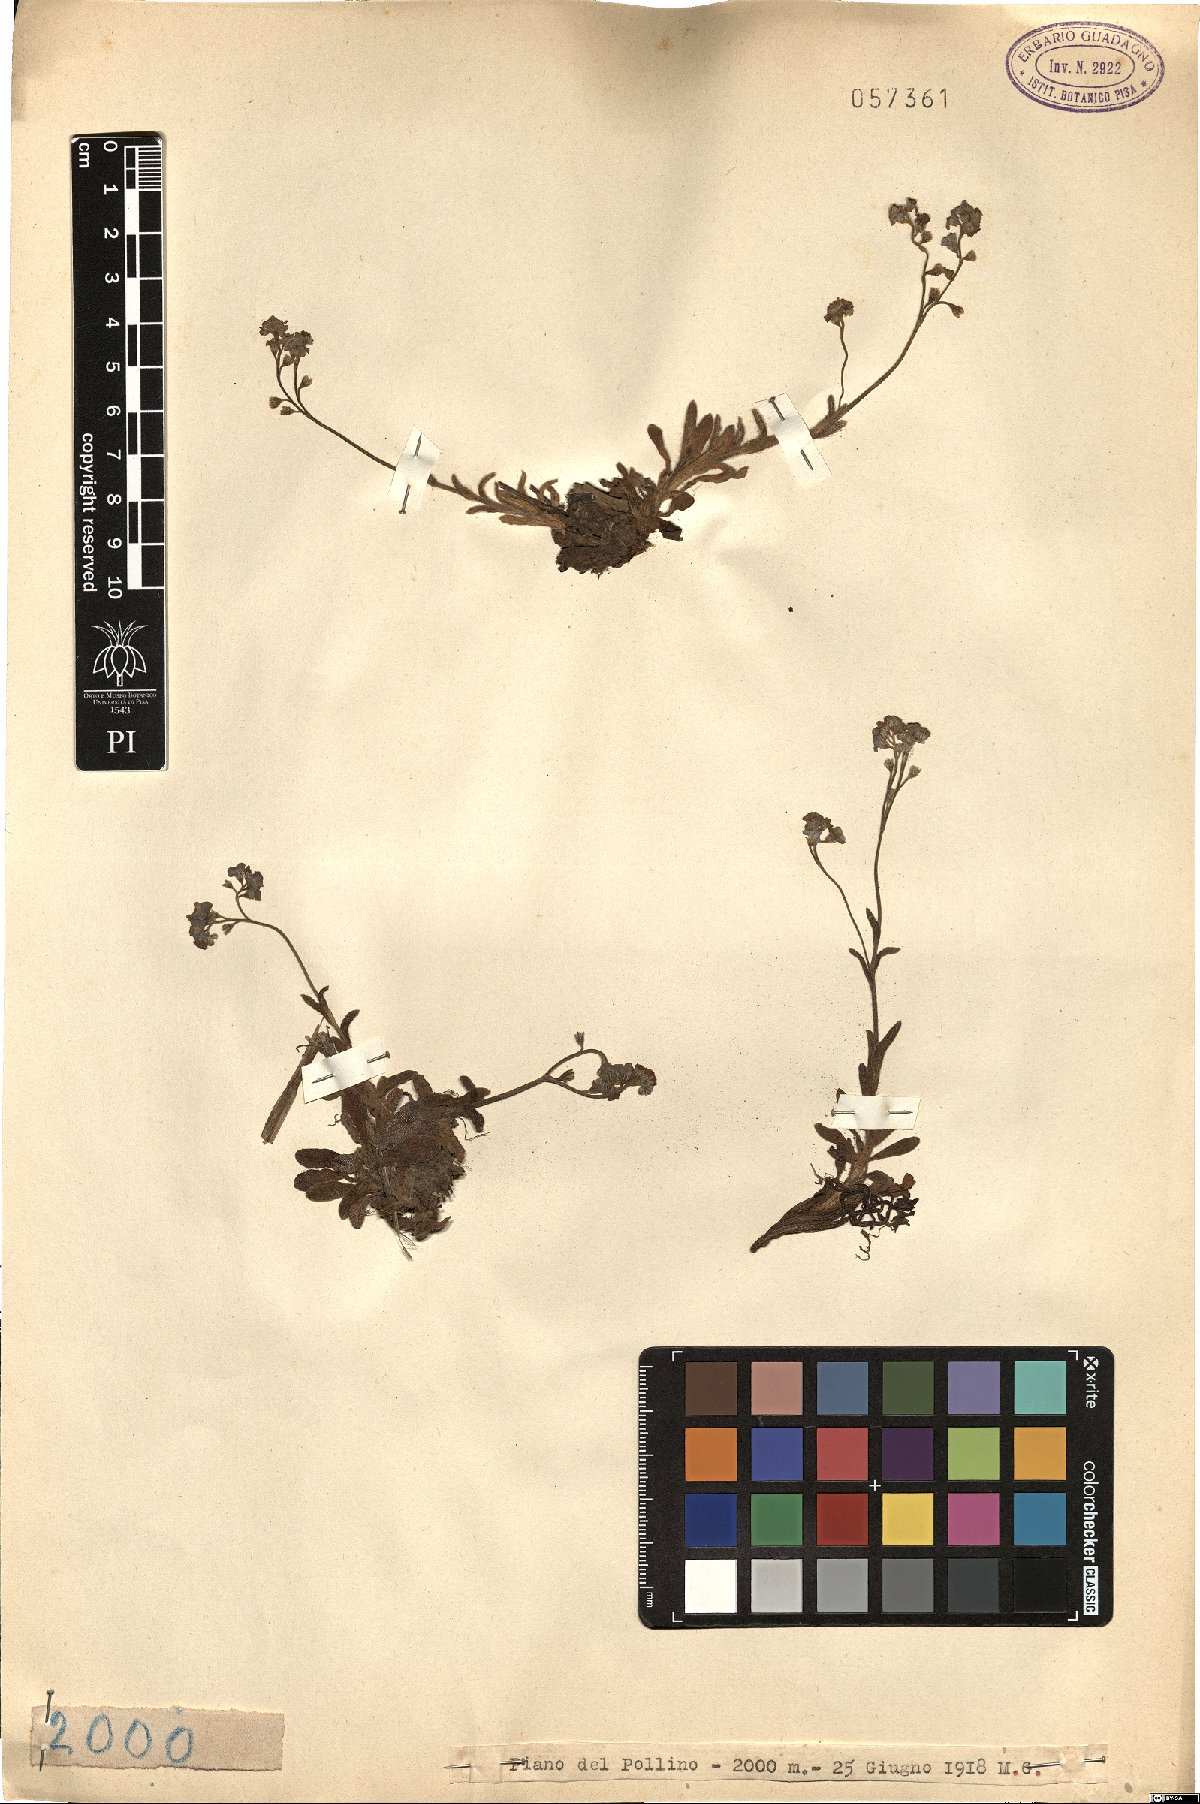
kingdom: Plantae
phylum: Tracheophyta
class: Magnoliopsida
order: Boraginales
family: Boraginaceae
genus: Myosotis
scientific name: Myosotis
